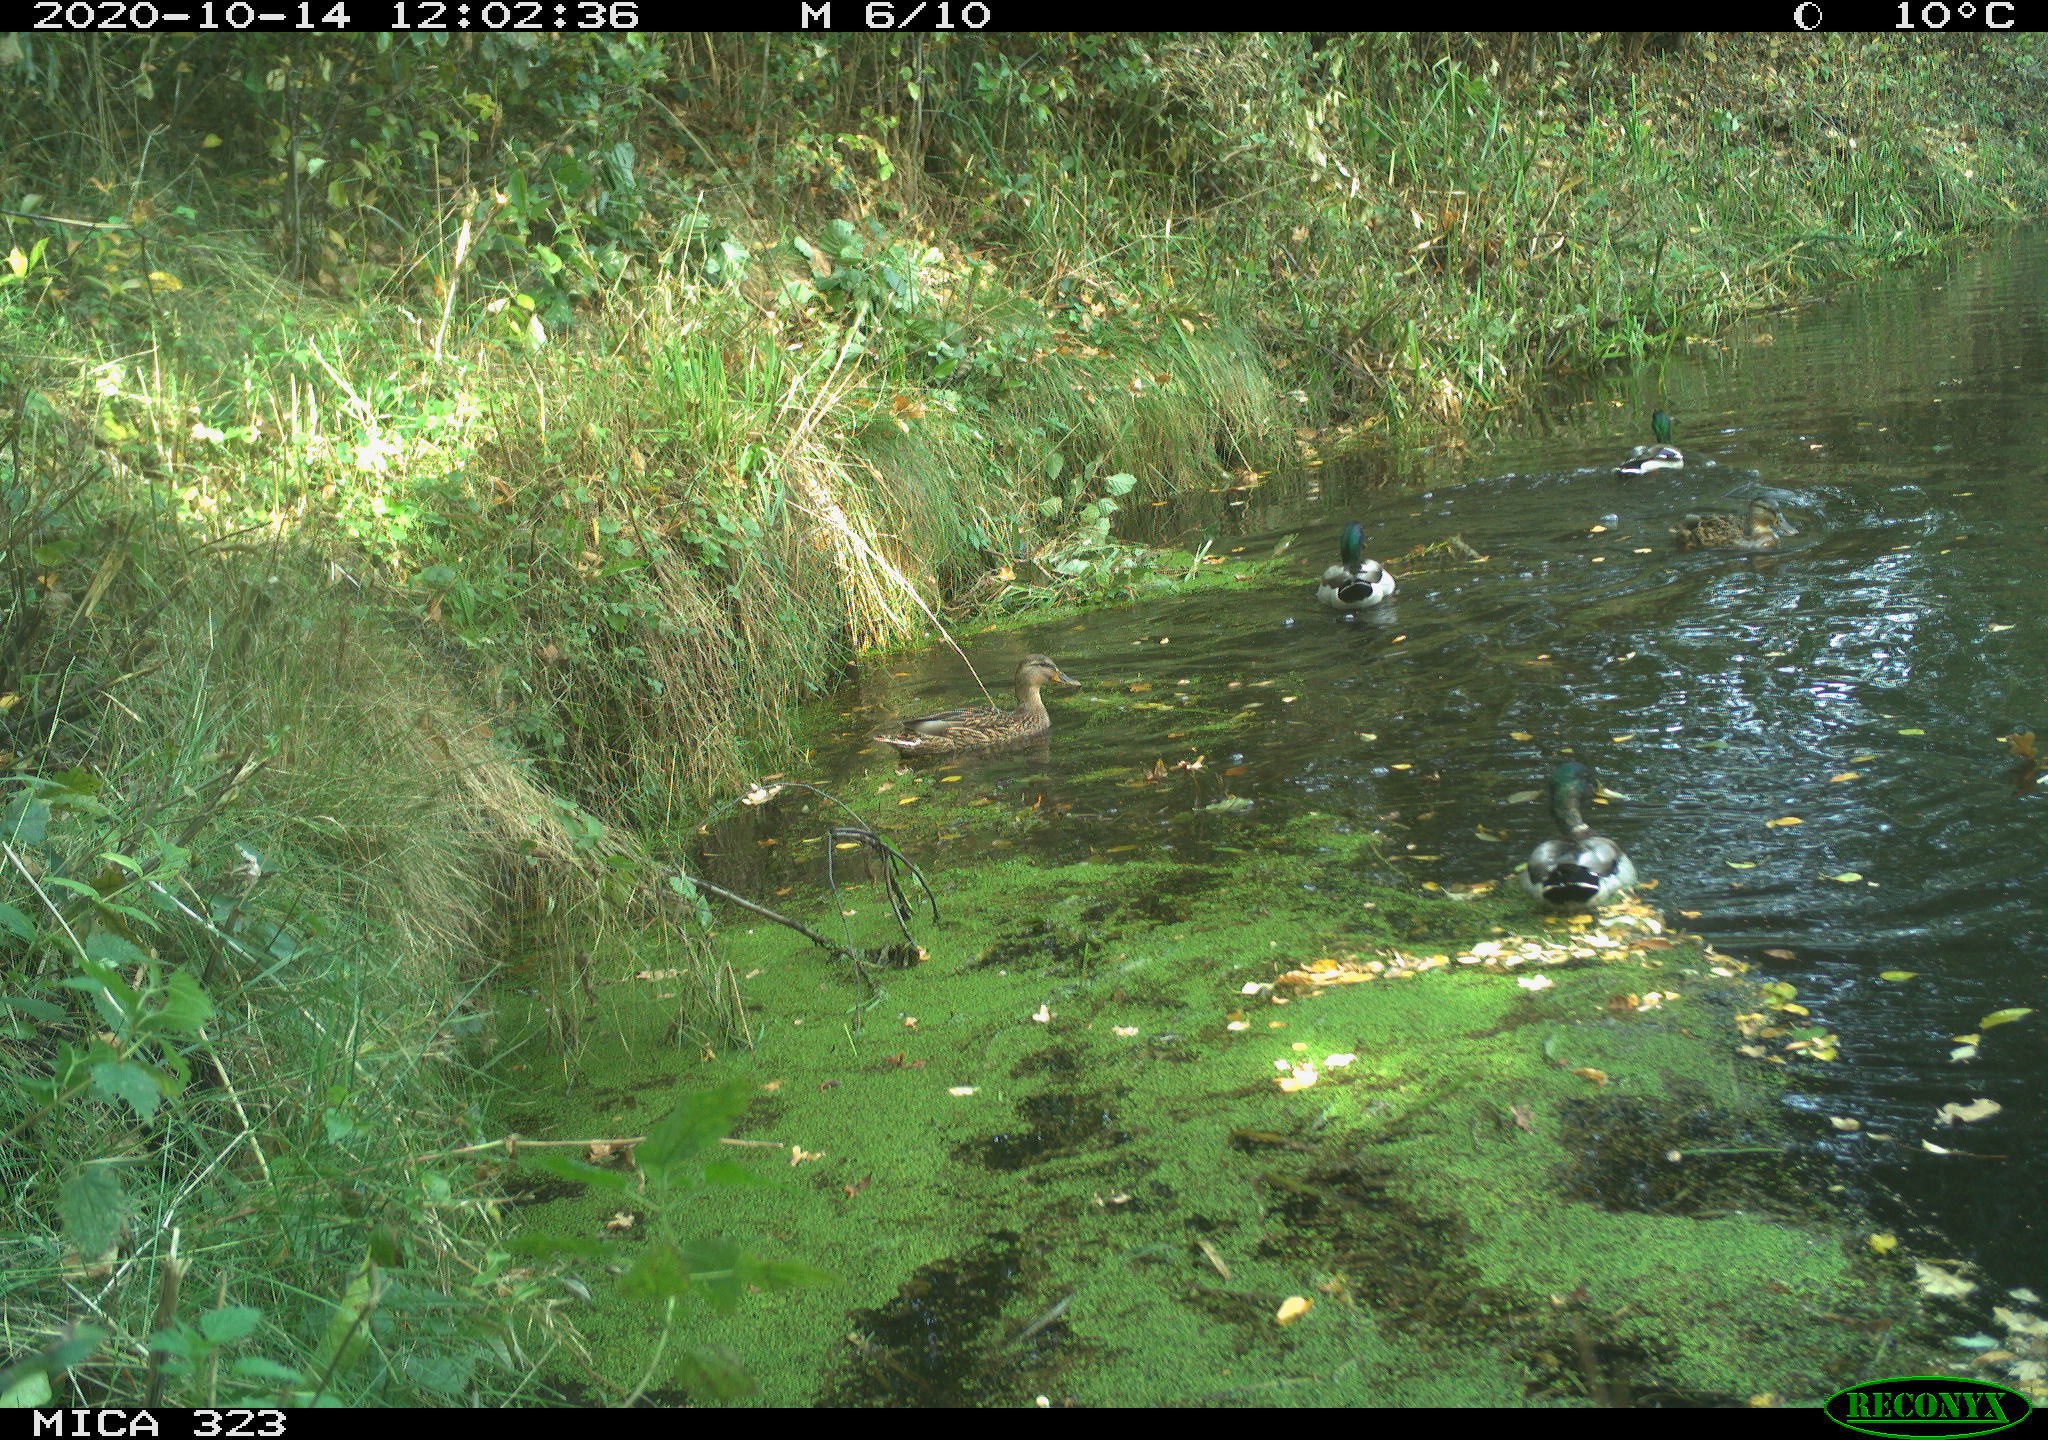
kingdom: Animalia
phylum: Chordata
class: Aves
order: Anseriformes
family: Anatidae
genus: Anas
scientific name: Anas platyrhynchos
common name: Mallard
